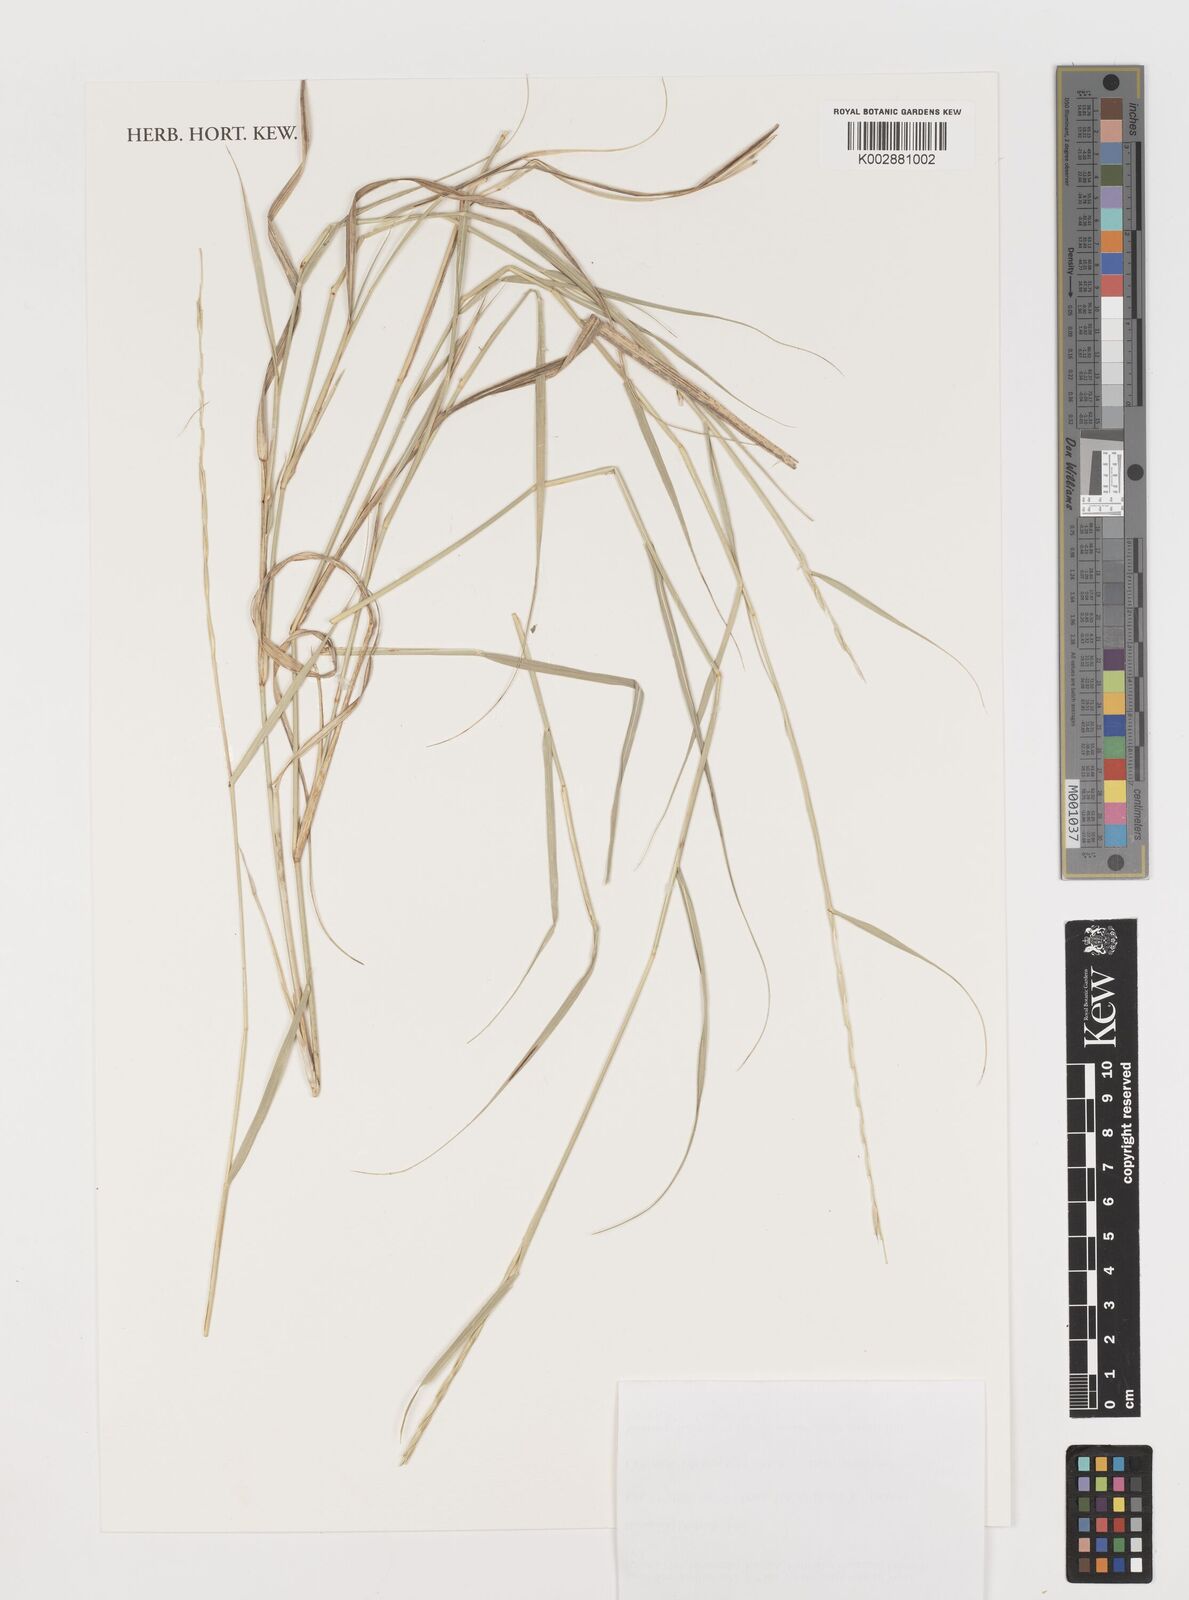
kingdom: Plantae
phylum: Tracheophyta
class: Liliopsida
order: Poales
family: Poaceae
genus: Astrebla
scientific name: Astrebla elymoides
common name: Hoop mitchell grass
